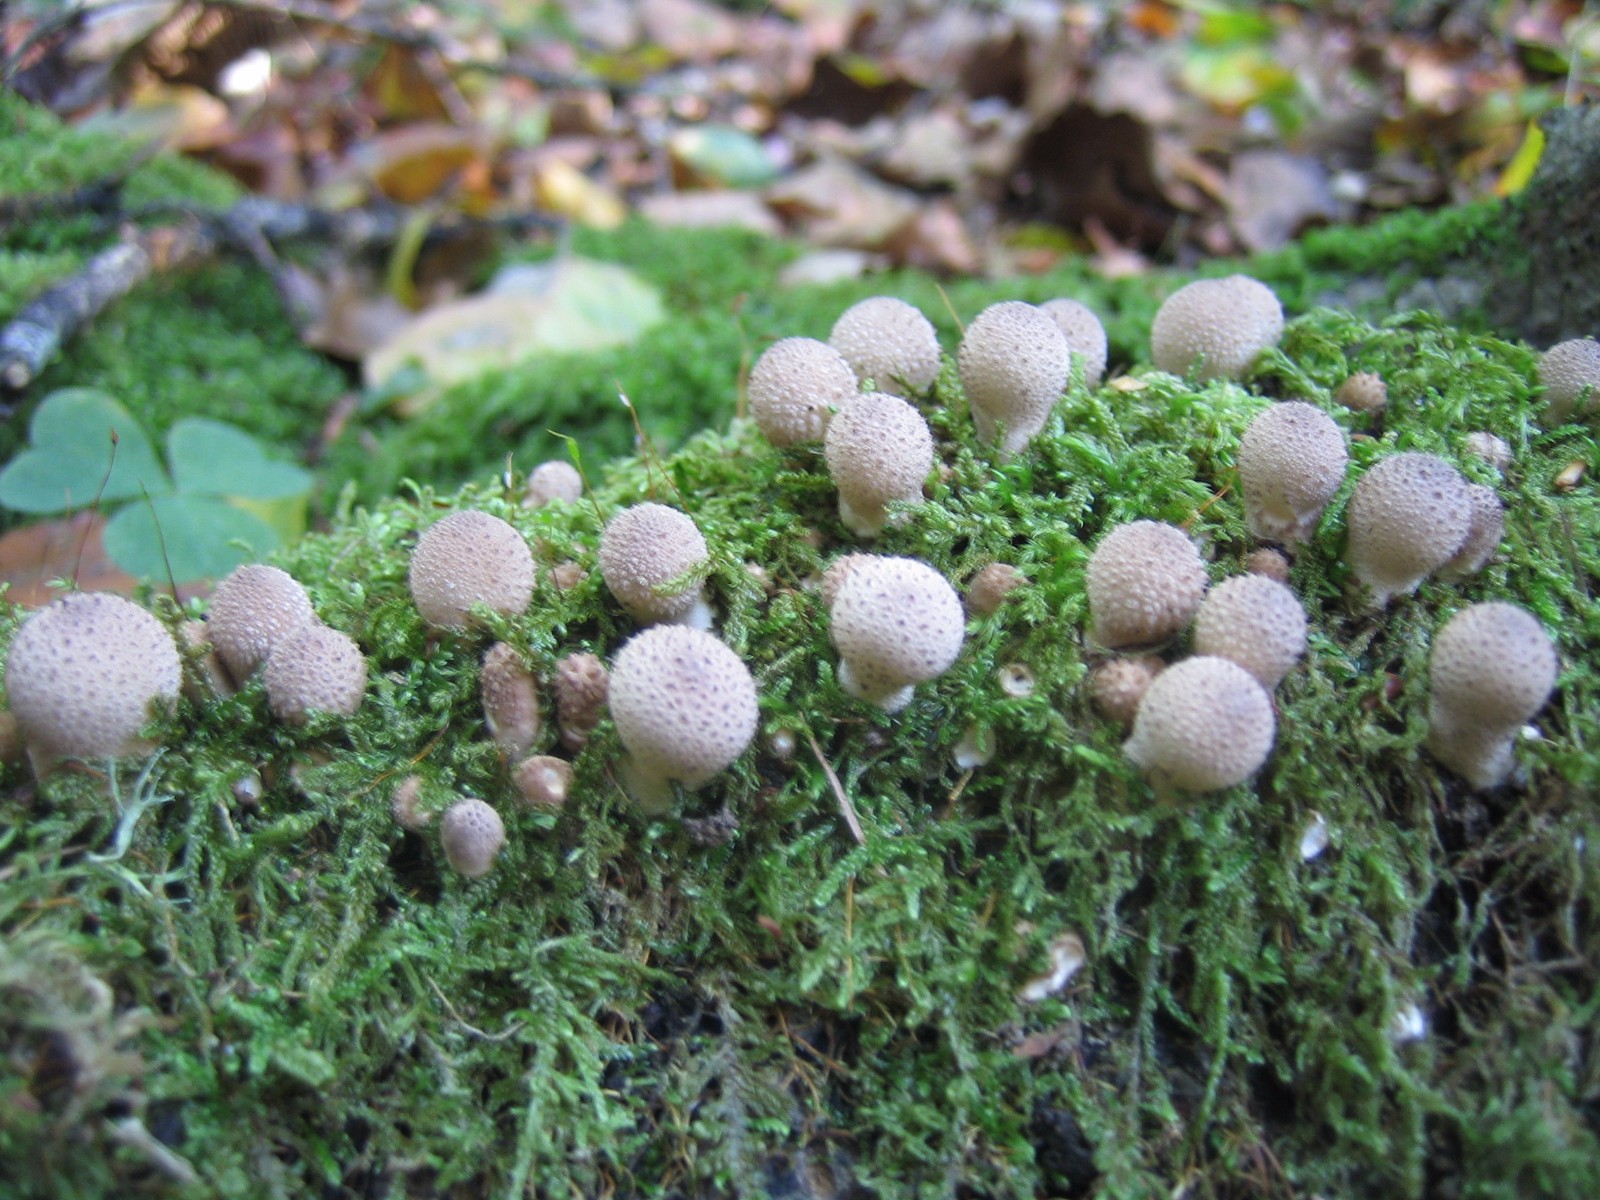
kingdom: Fungi
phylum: Basidiomycota
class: Agaricomycetes
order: Agaricales
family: Lycoperdaceae
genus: Lycoperdon
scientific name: Lycoperdon perlatum
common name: krystal-støvbold
